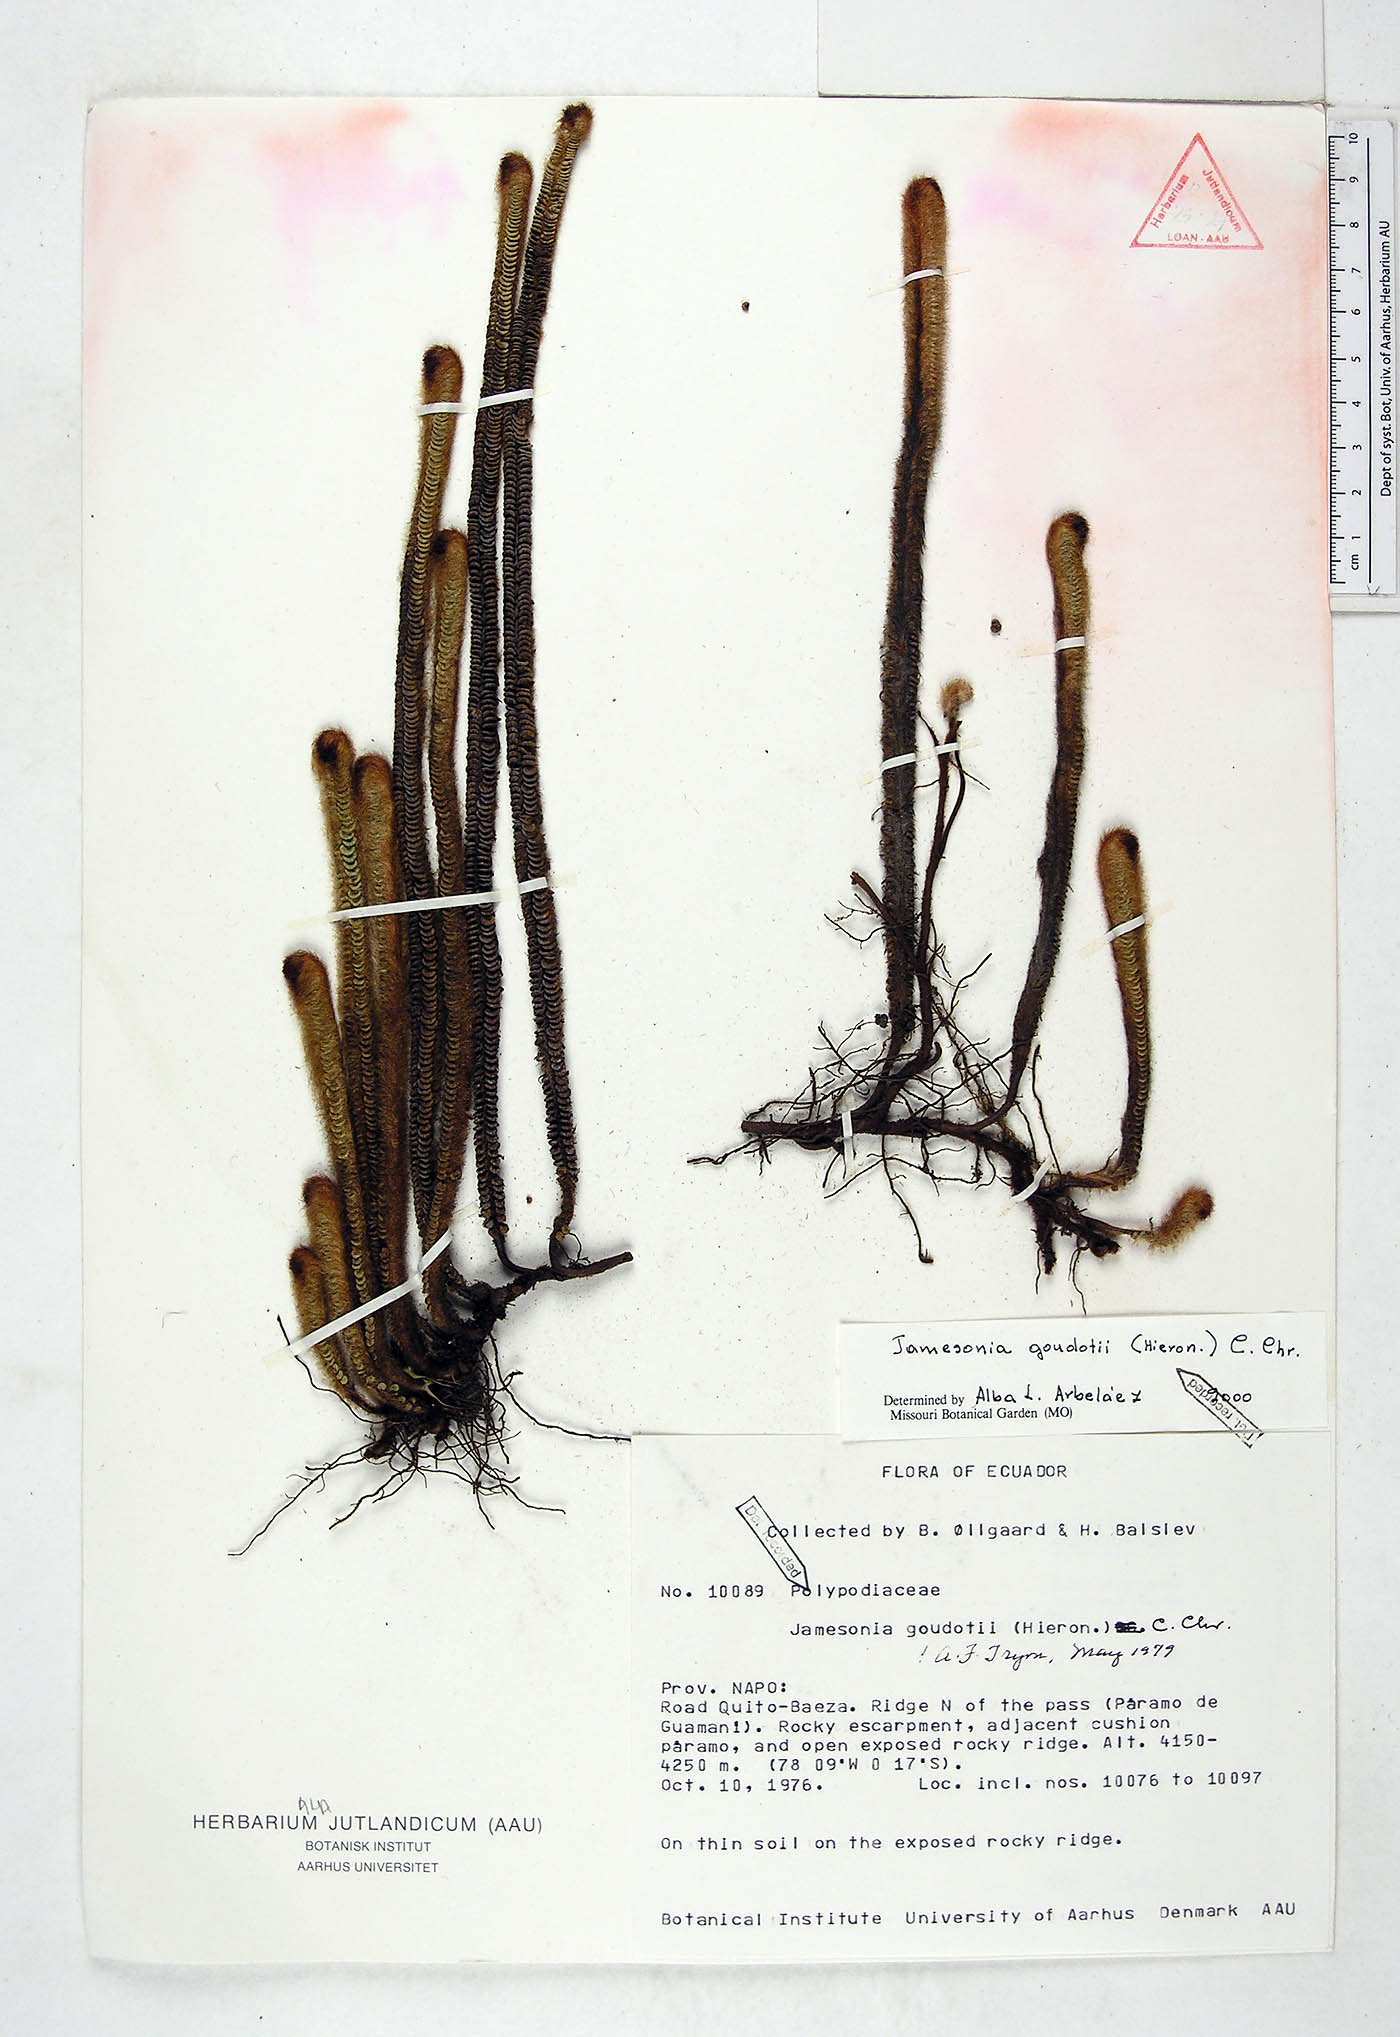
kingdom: Plantae
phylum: Tracheophyta
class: Polypodiopsida
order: Polypodiales
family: Pteridaceae
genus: Jamesonia
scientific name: Jamesonia goudotii
